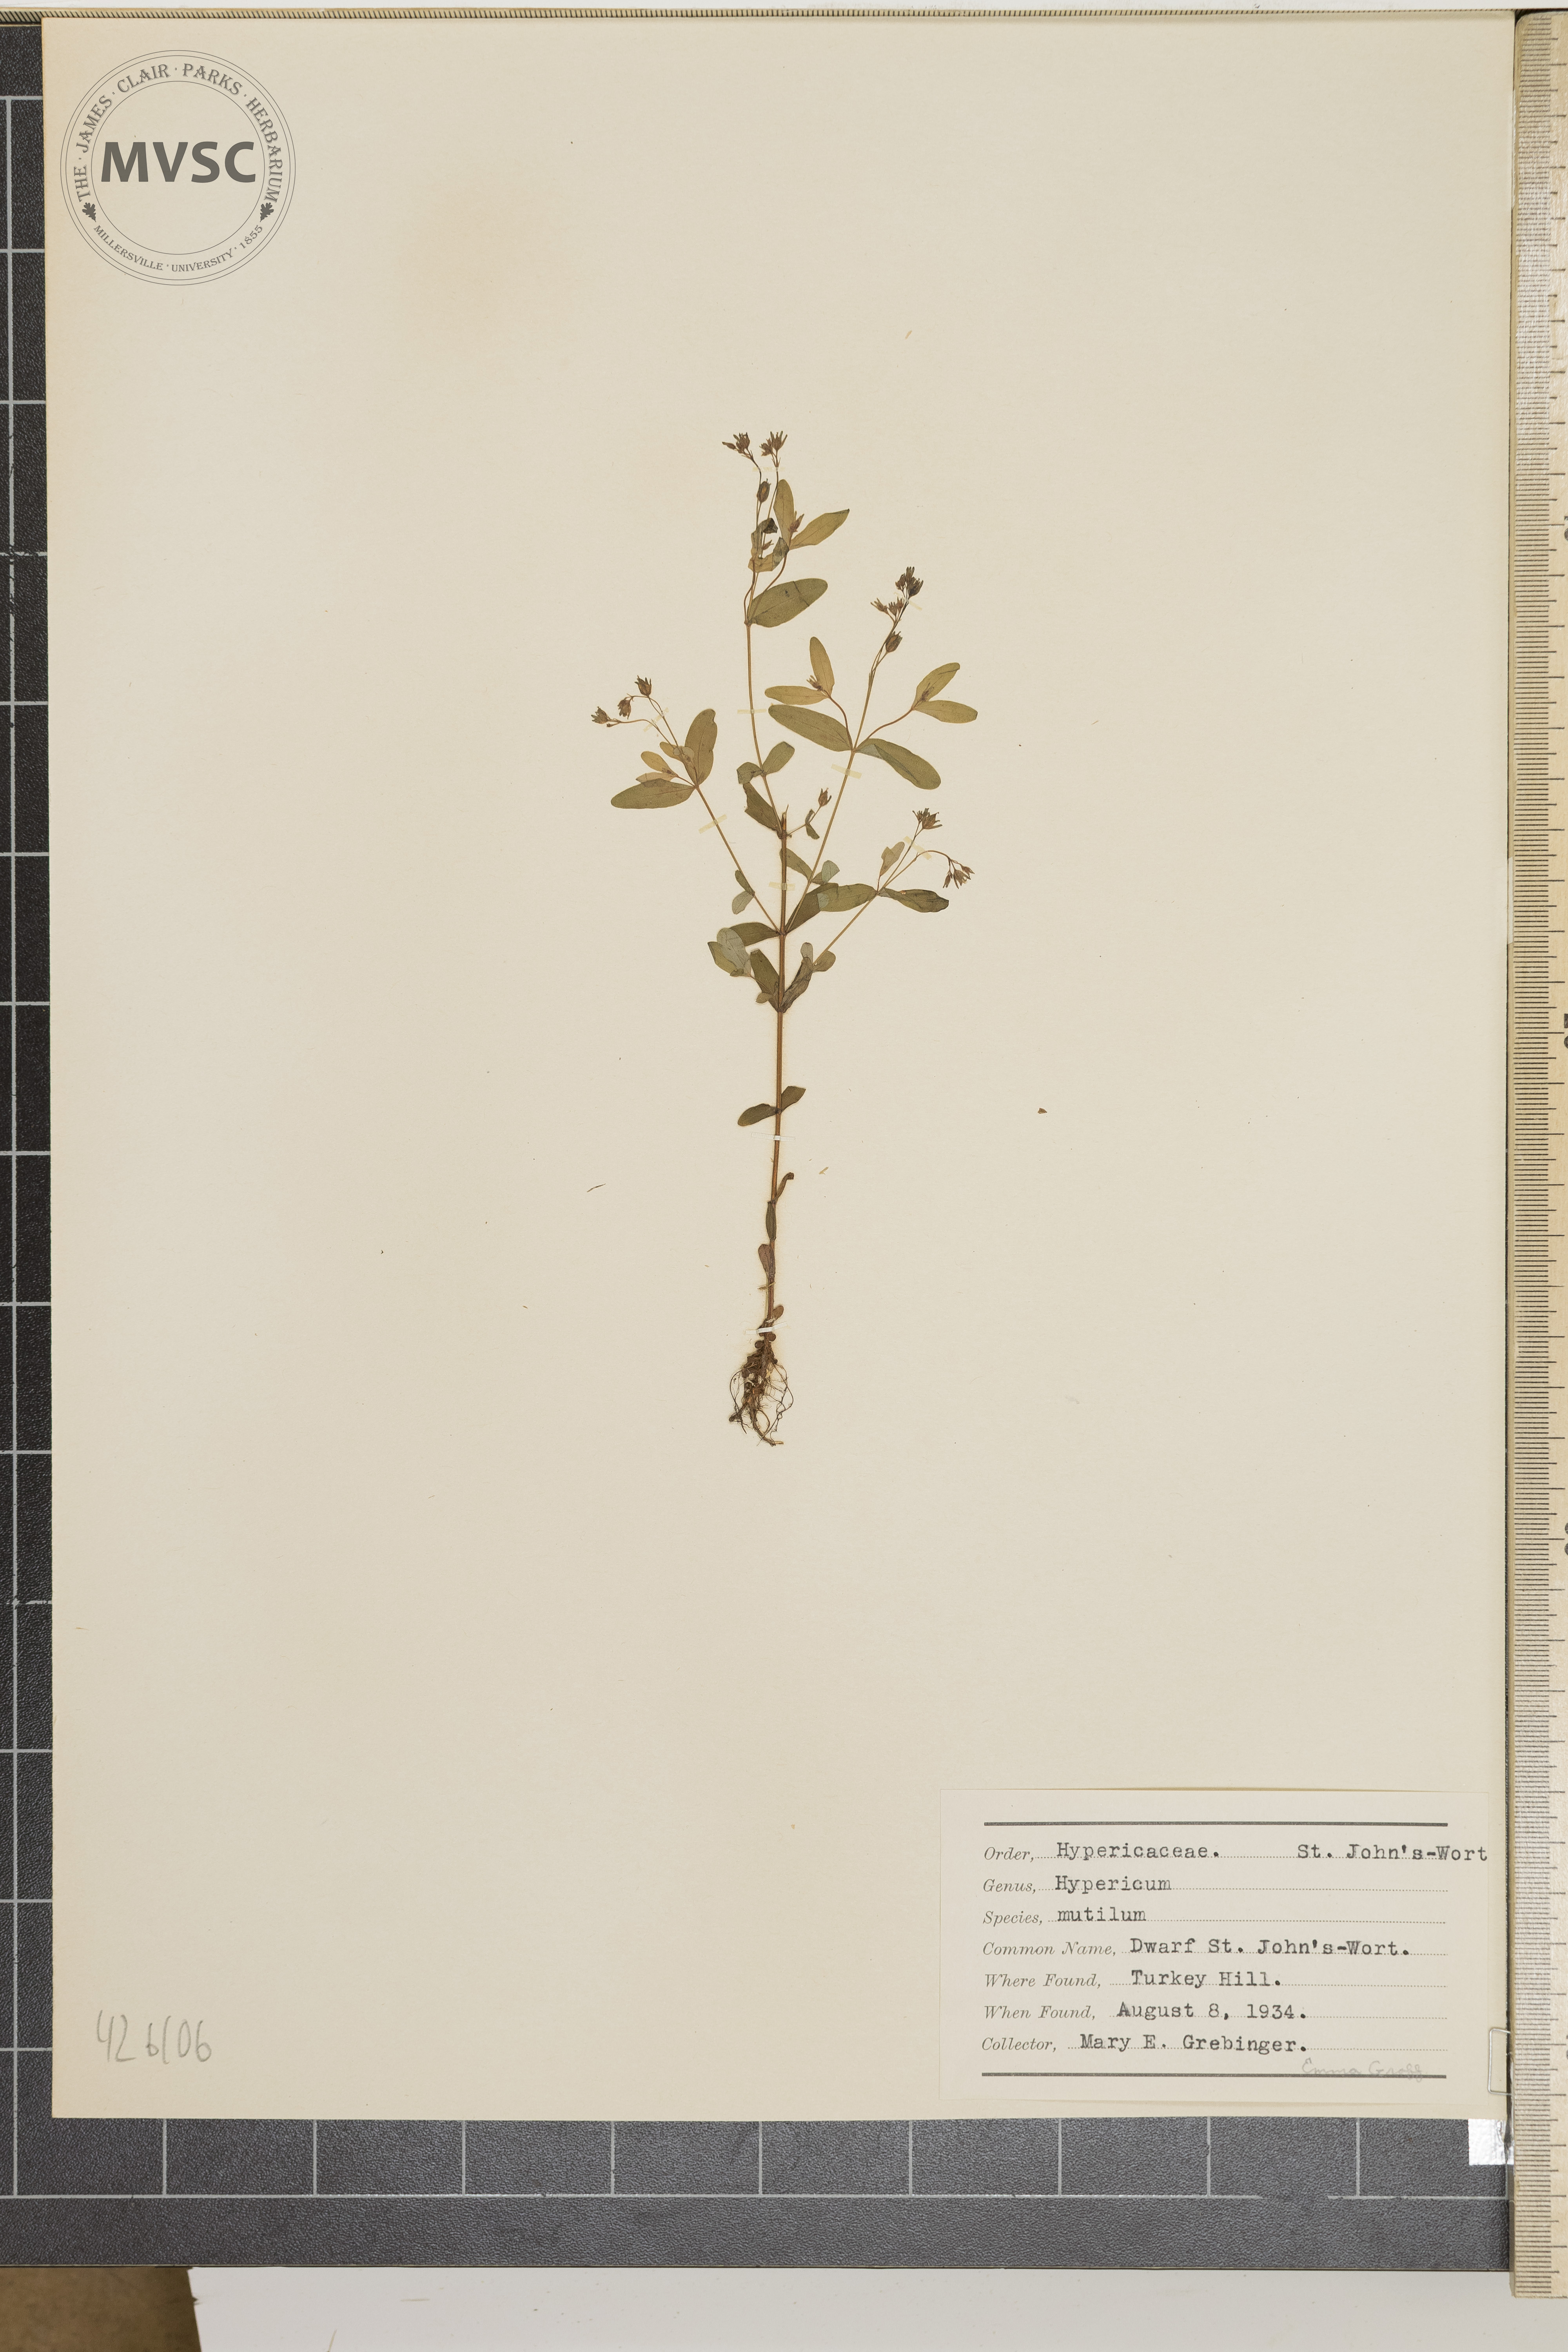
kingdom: Plantae
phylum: Tracheophyta
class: Magnoliopsida
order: Malpighiales
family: Hypericaceae
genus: Hypericum
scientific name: Hypericum mutilum
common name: Dwarf St. John's-wort
